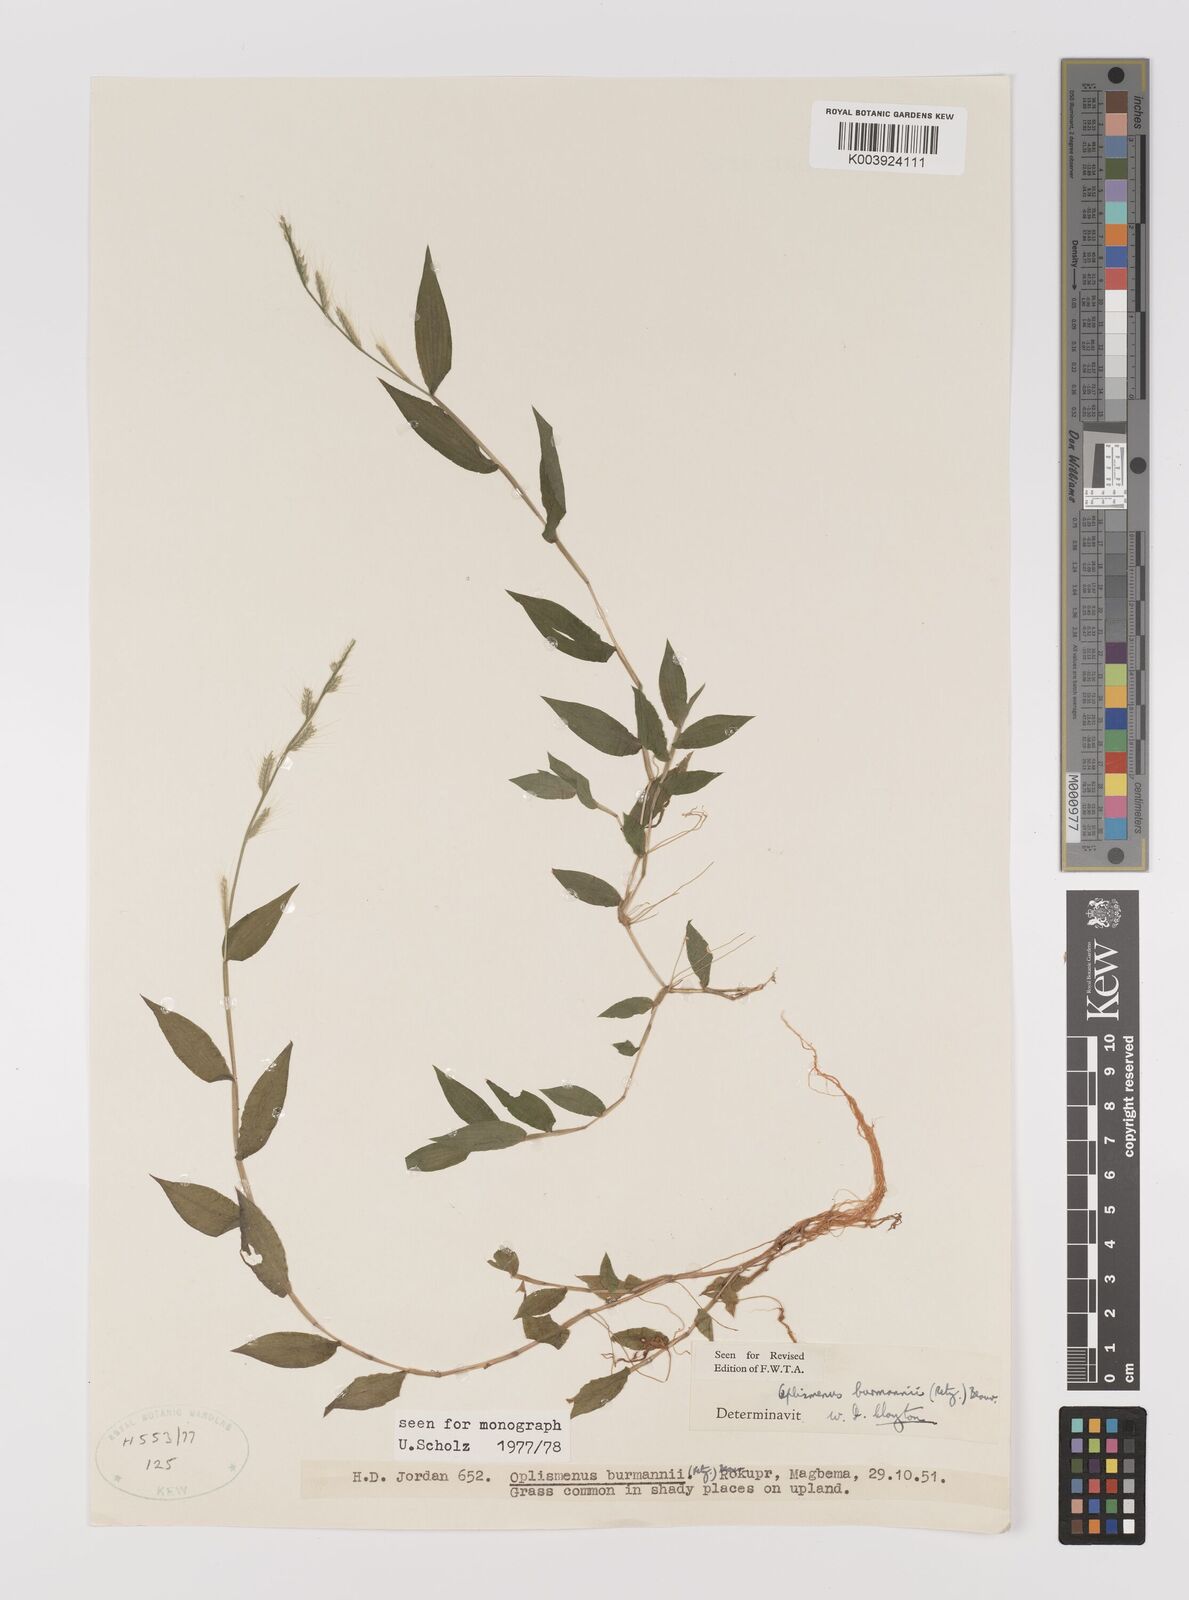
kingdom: Plantae
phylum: Tracheophyta
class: Liliopsida
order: Poales
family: Poaceae
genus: Oplismenus
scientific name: Oplismenus burmanni
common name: Burmann's basketgrass
